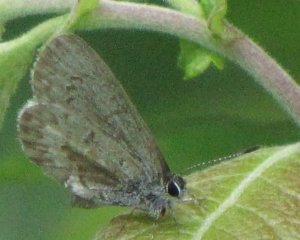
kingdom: Animalia
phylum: Arthropoda
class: Insecta
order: Lepidoptera
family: Lycaenidae
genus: Celastrina
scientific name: Celastrina
